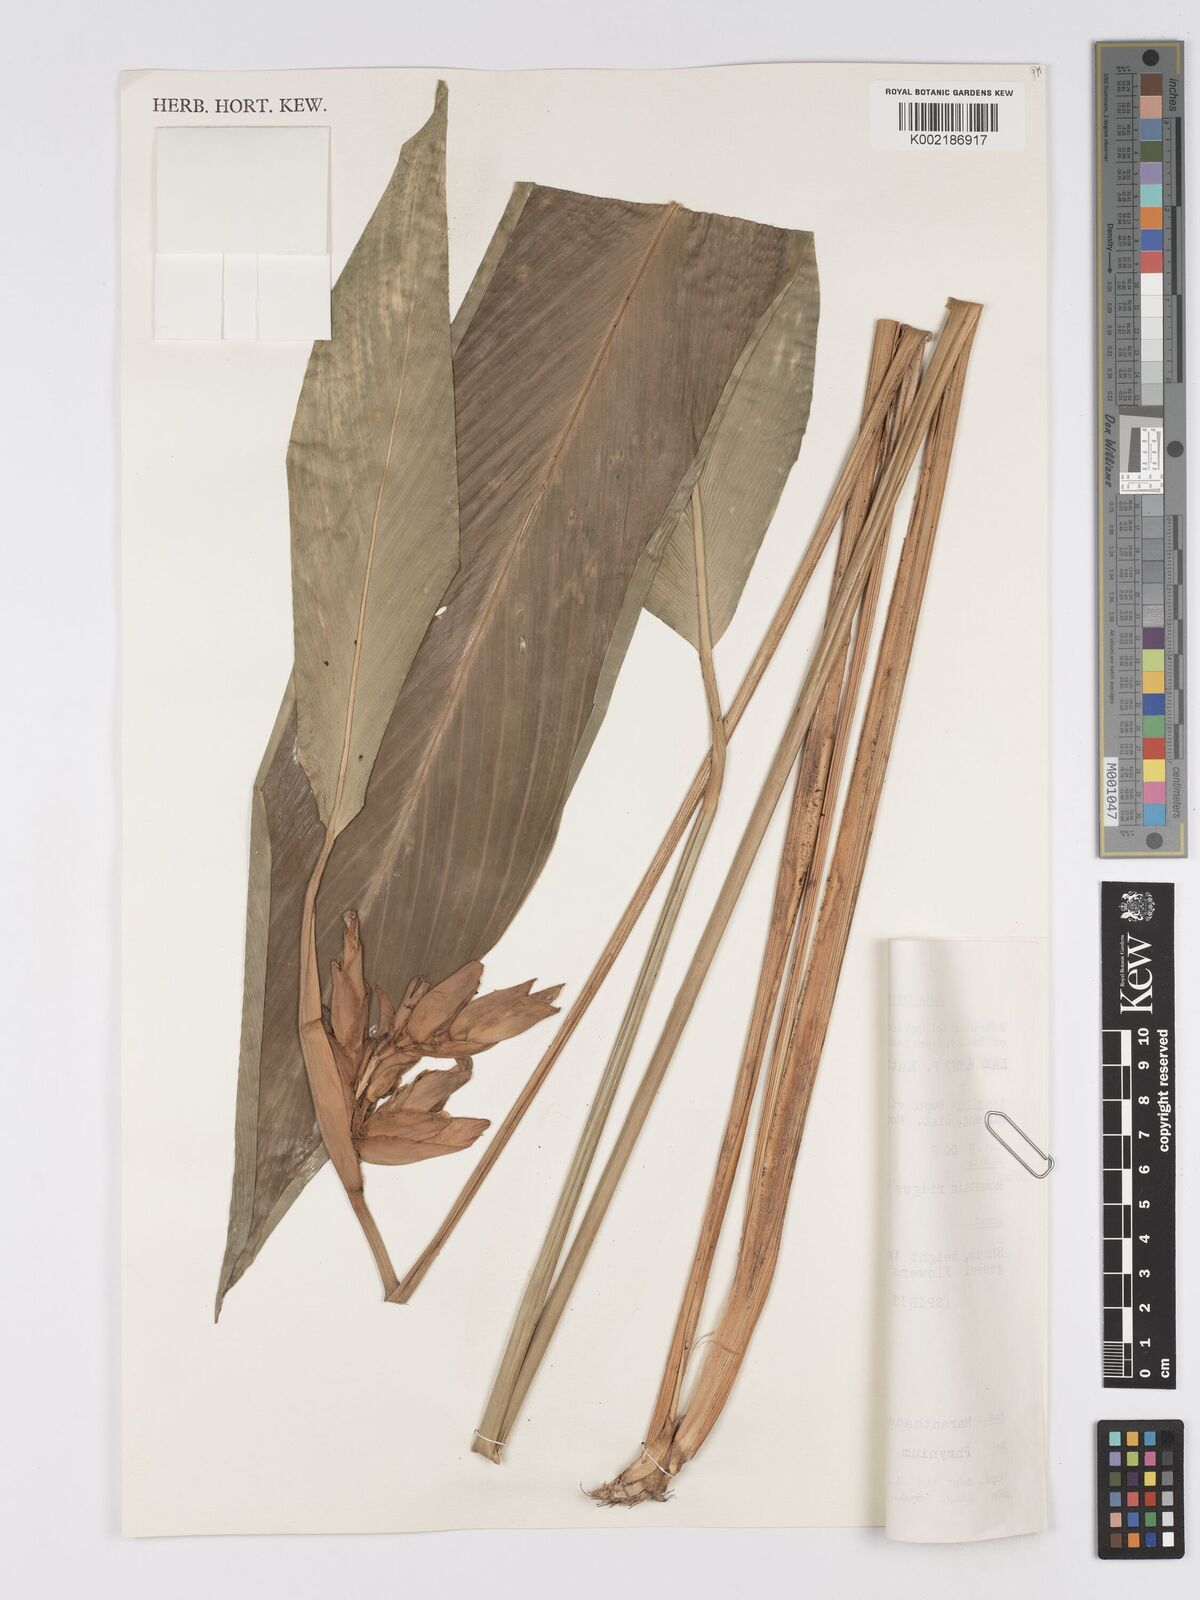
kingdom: Plantae
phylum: Tracheophyta
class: Liliopsida
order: Zingiberales
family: Marantaceae
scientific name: Marantaceae
